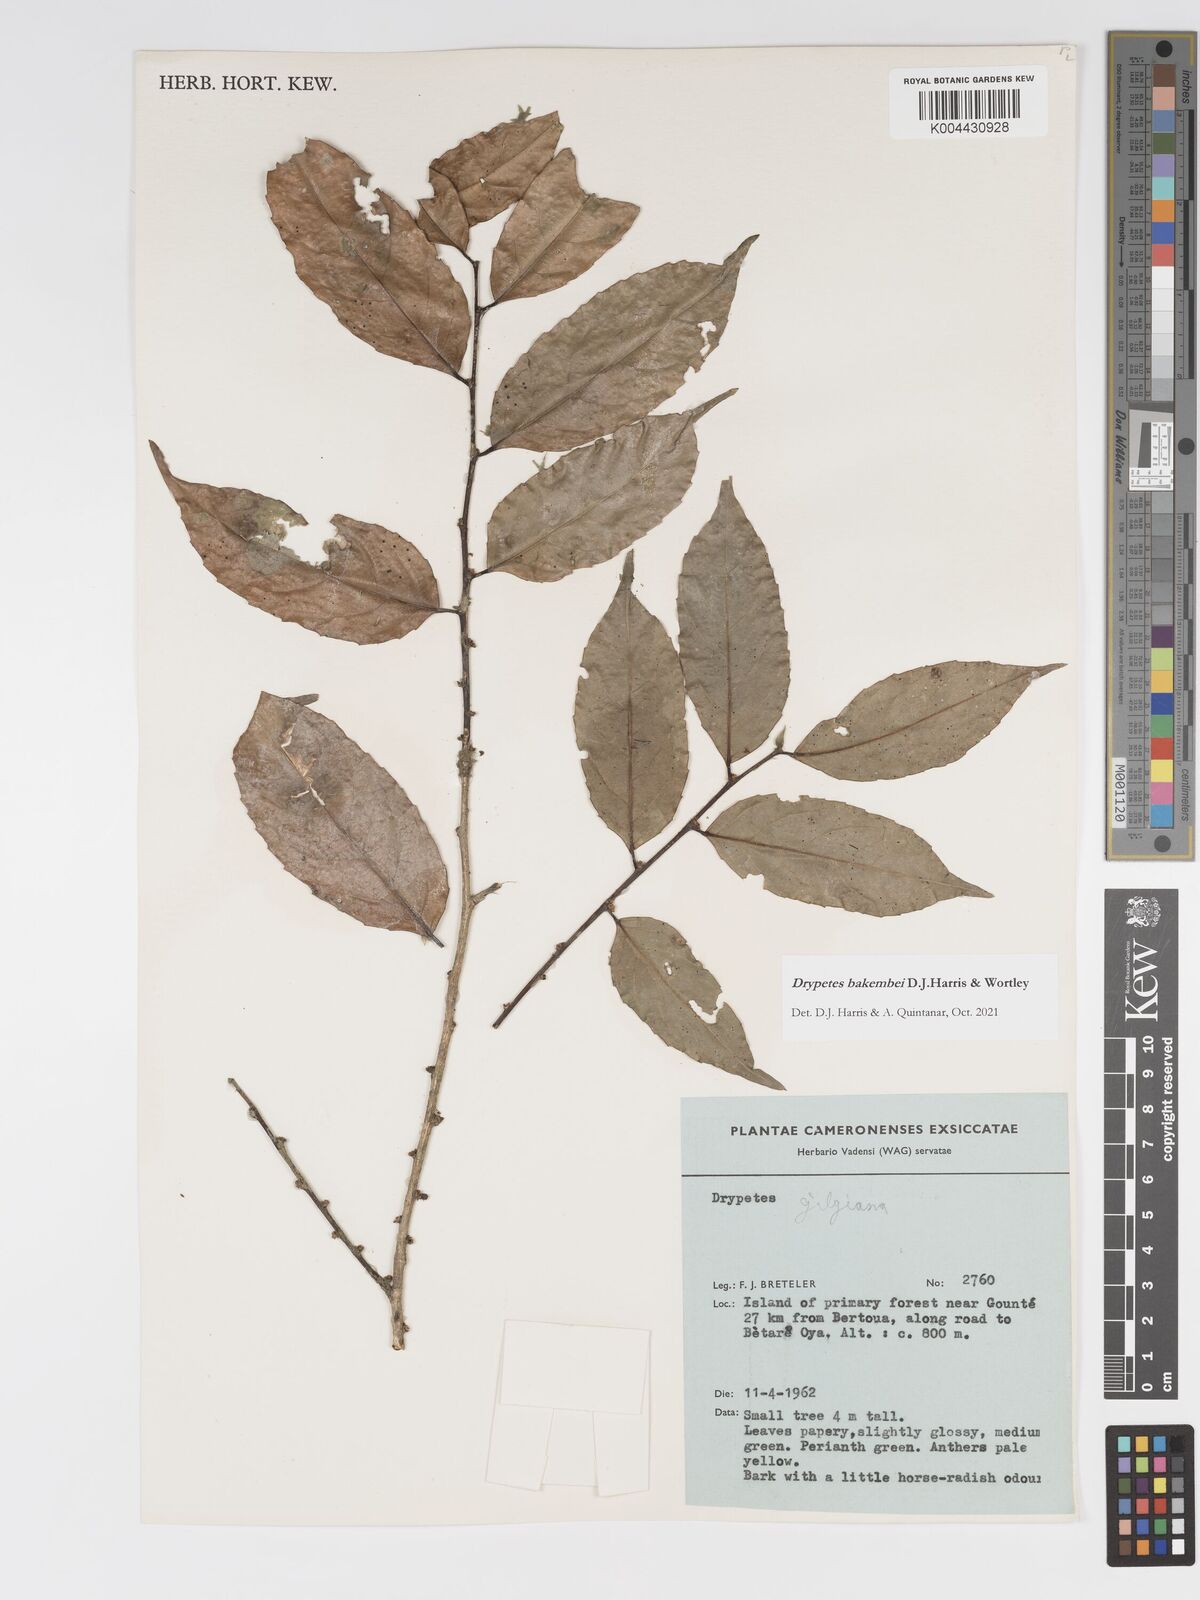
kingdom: Plantae
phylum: Tracheophyta
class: Magnoliopsida
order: Malpighiales
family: Putranjivaceae
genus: Drypetes
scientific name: Drypetes bakembei
